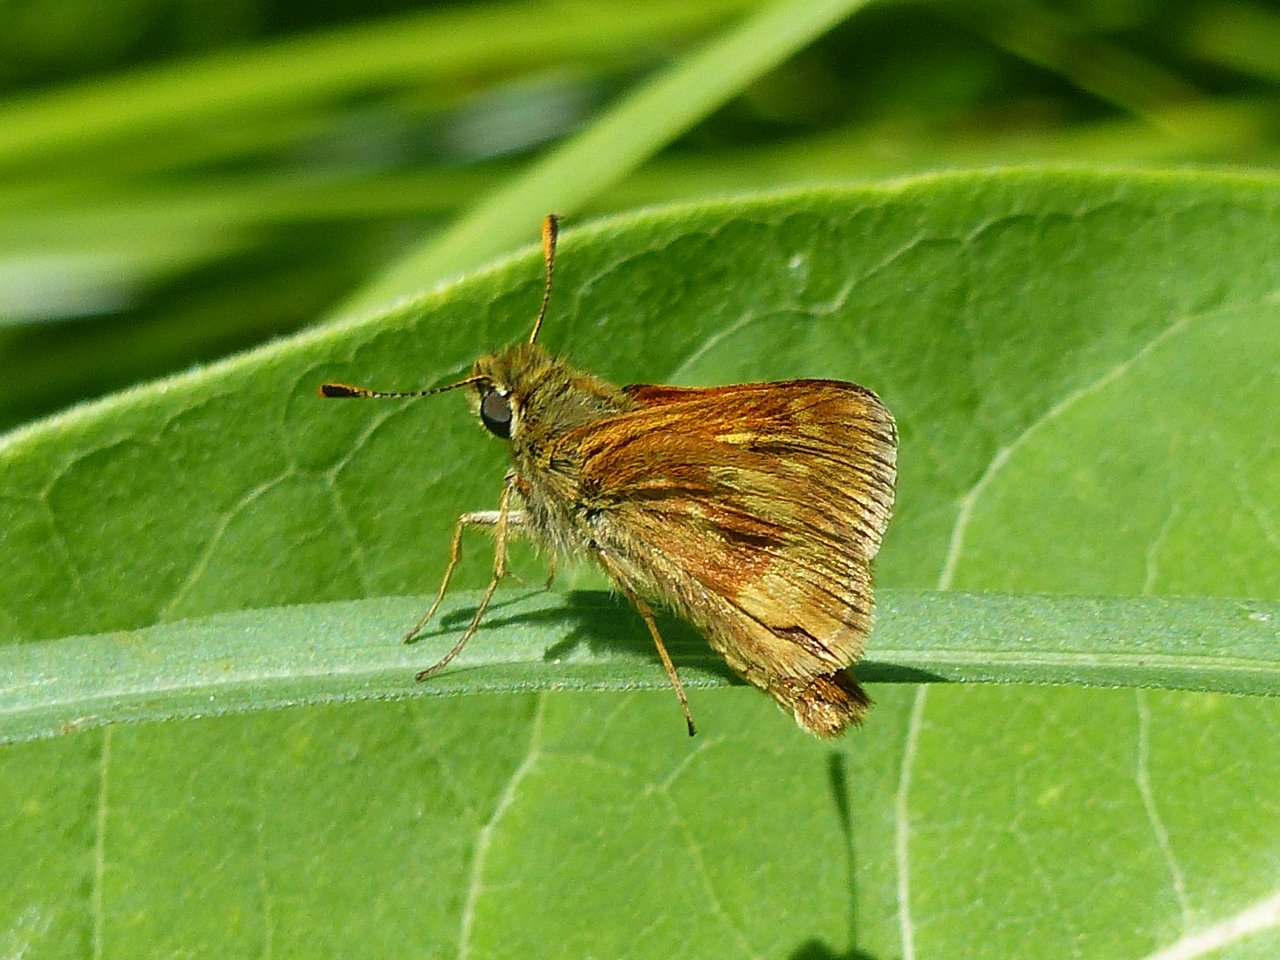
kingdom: Animalia
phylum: Arthropoda
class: Insecta
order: Lepidoptera
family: Hesperiidae
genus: Polites
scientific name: Polites
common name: Long Dash Skipper
